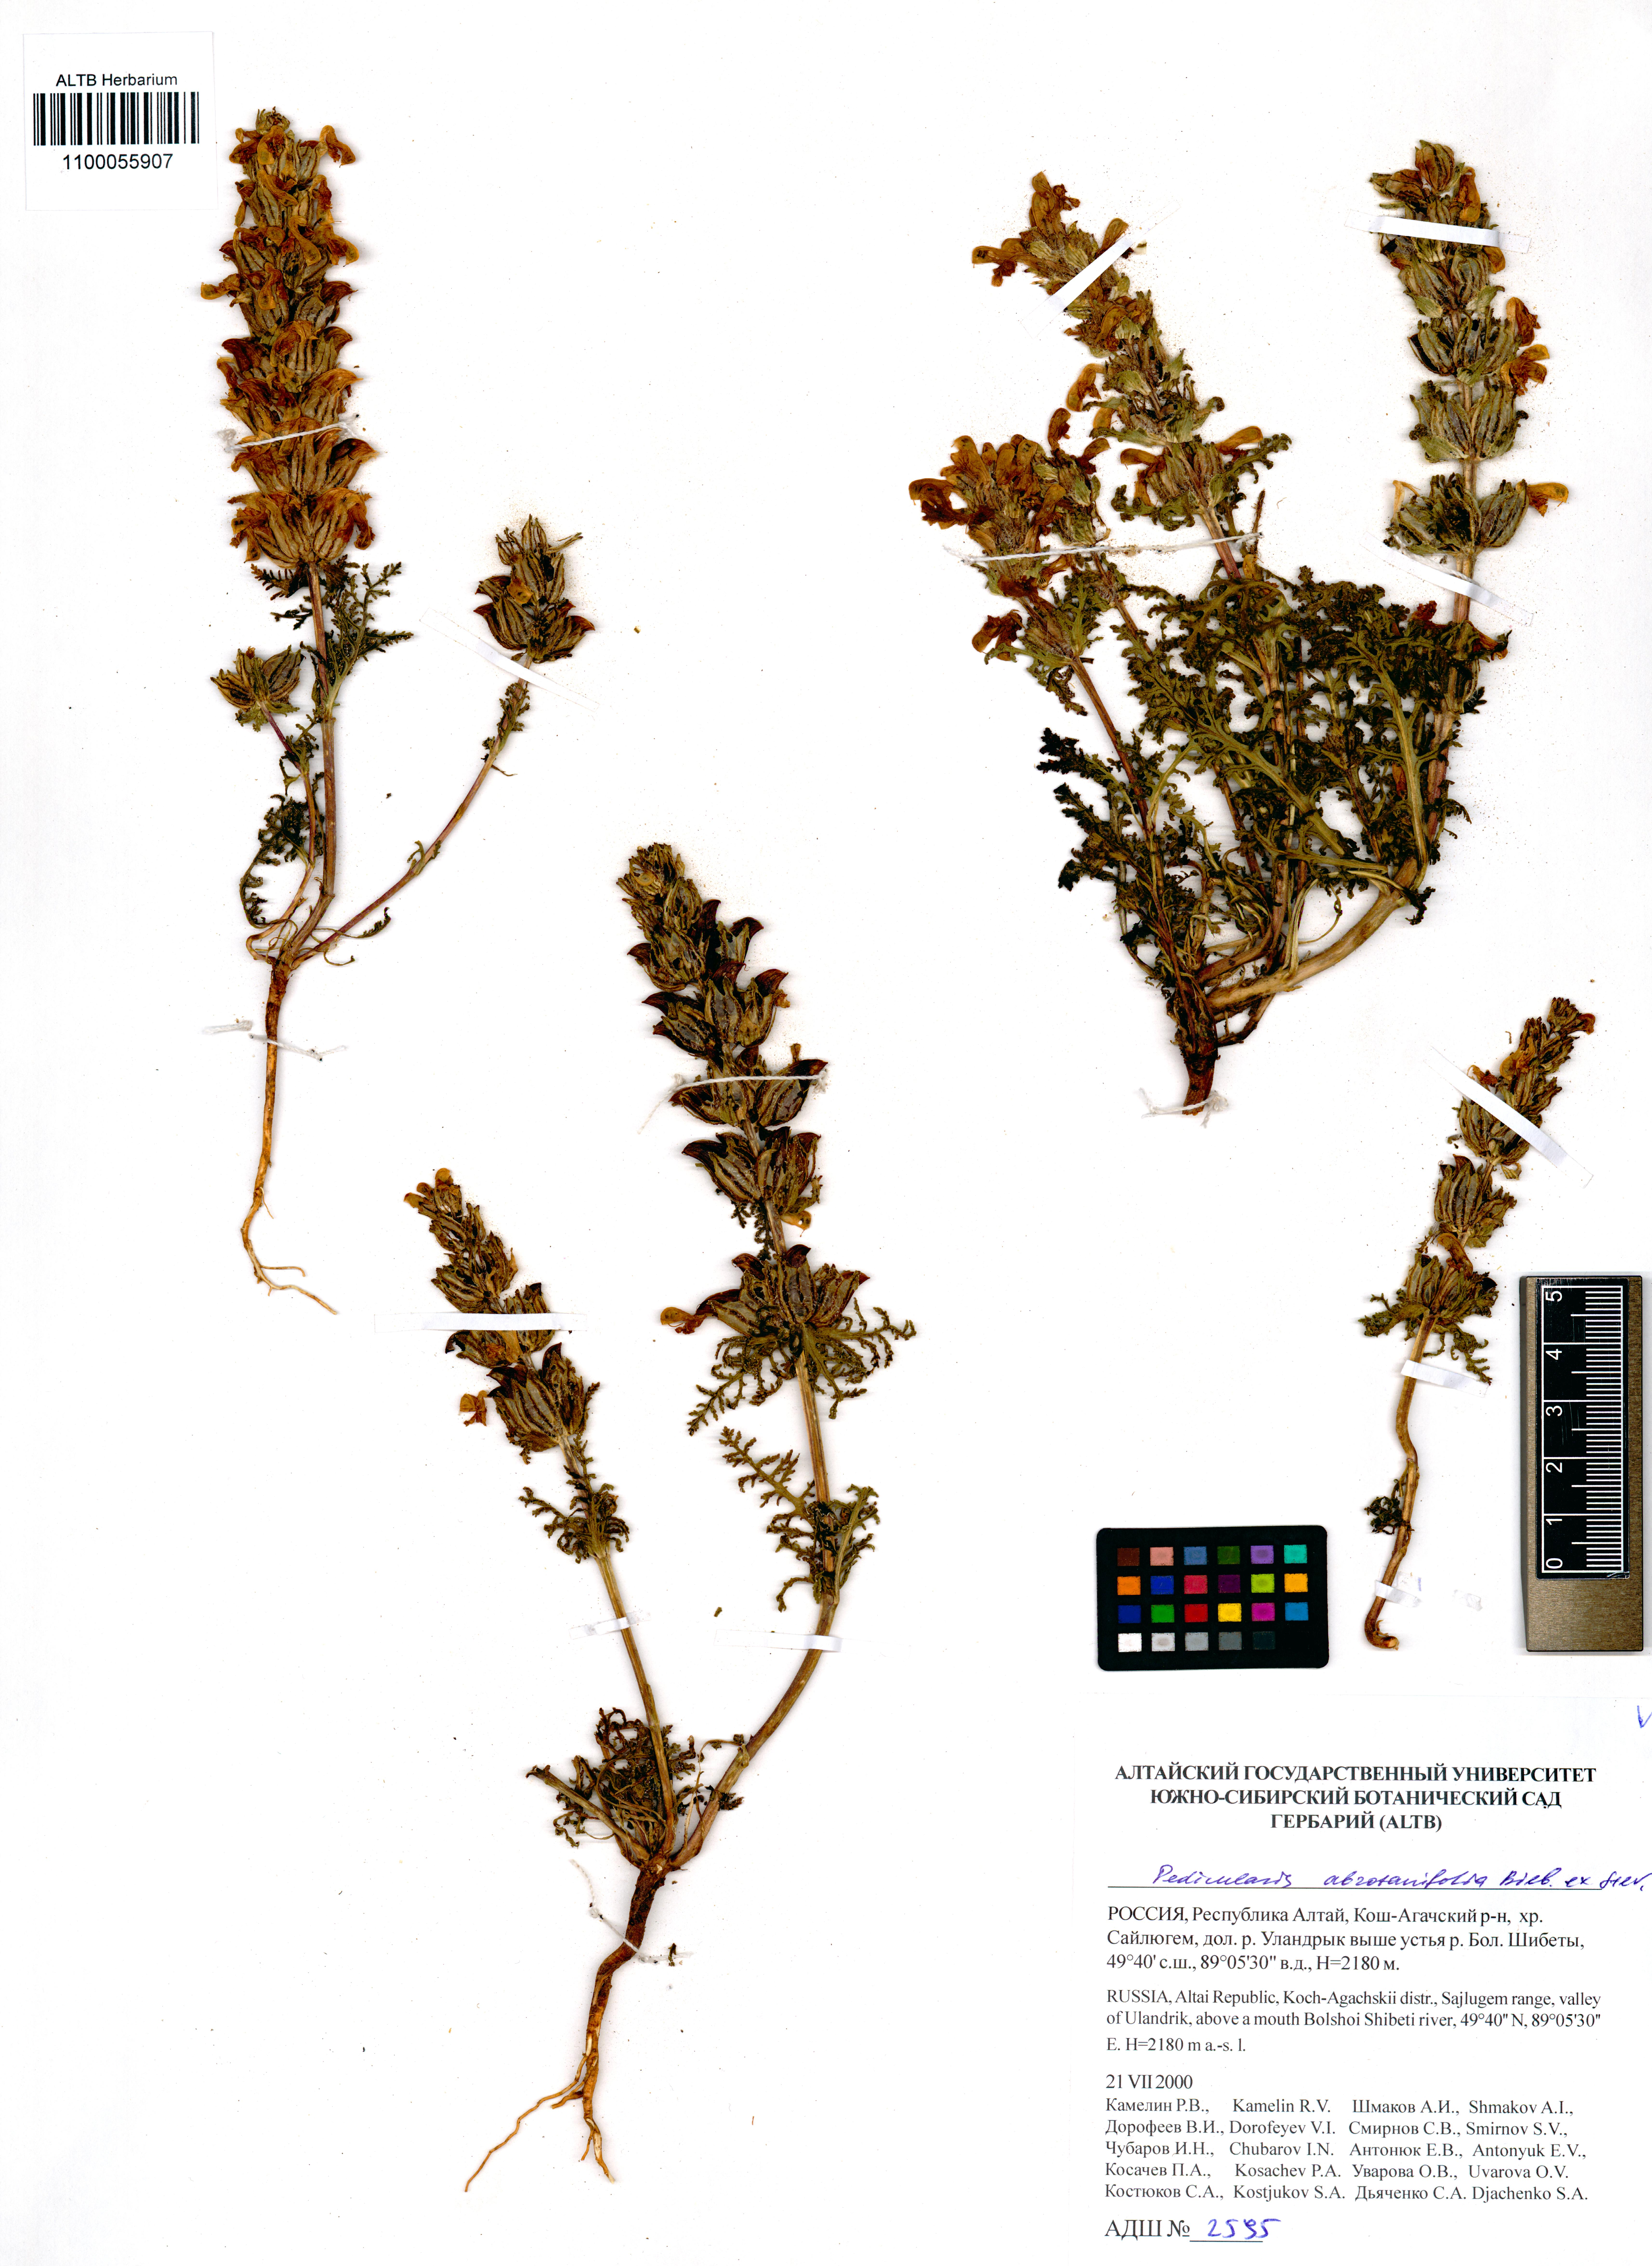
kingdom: Plantae
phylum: Tracheophyta
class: Magnoliopsida
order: Lamiales
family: Orobanchaceae
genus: Pedicularis
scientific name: Pedicularis abrotanifolia
